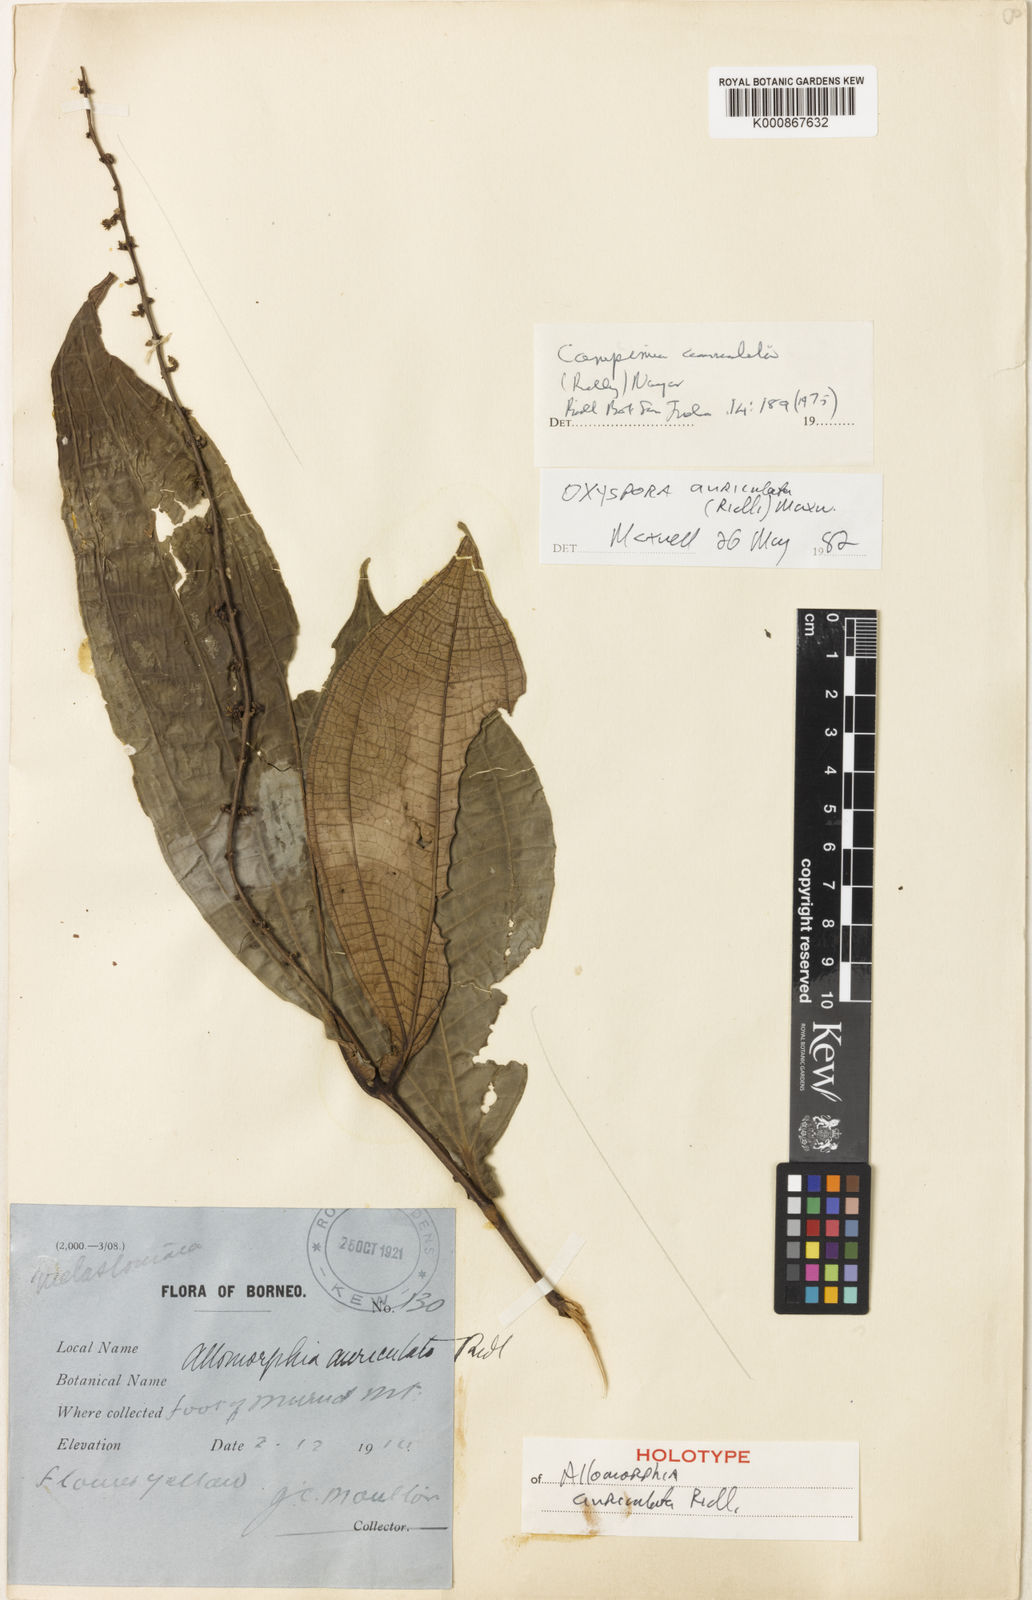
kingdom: Plantae
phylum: Tracheophyta
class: Magnoliopsida
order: Myrtales
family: Melastomataceae
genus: Campimia
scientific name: Campimia auriculata
